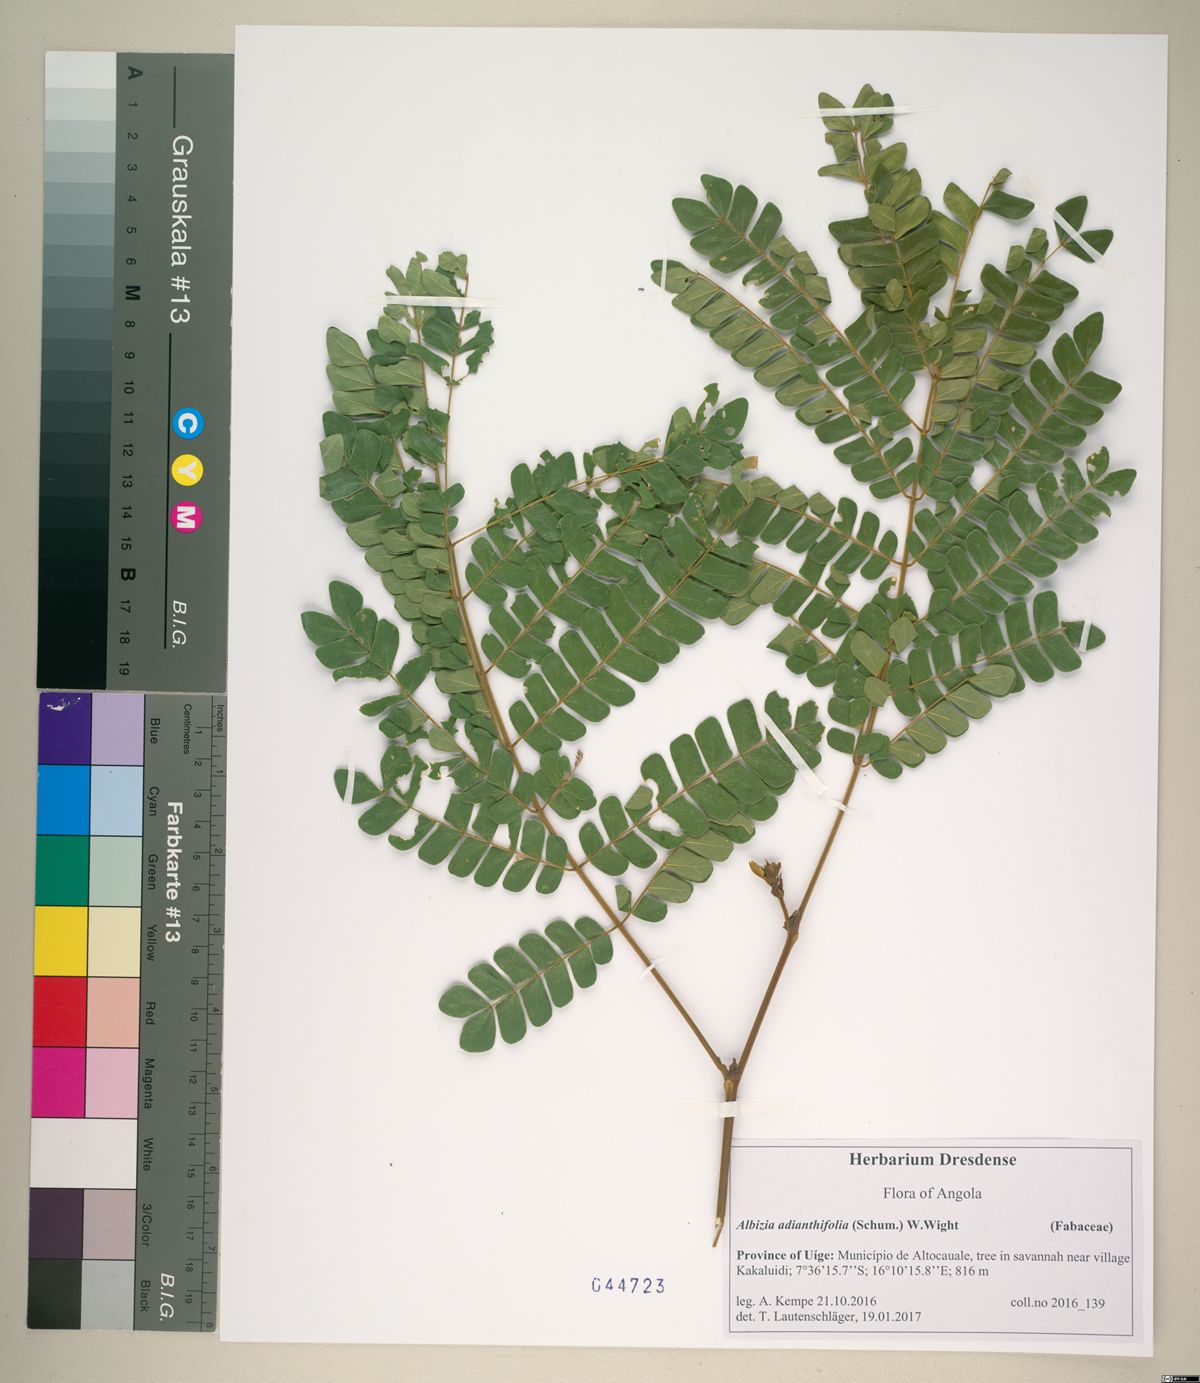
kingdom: Plantae
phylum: Tracheophyta
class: Magnoliopsida
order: Fabales
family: Fabaceae
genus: Albizia
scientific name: Albizia adianthifolia
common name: West african albizia
